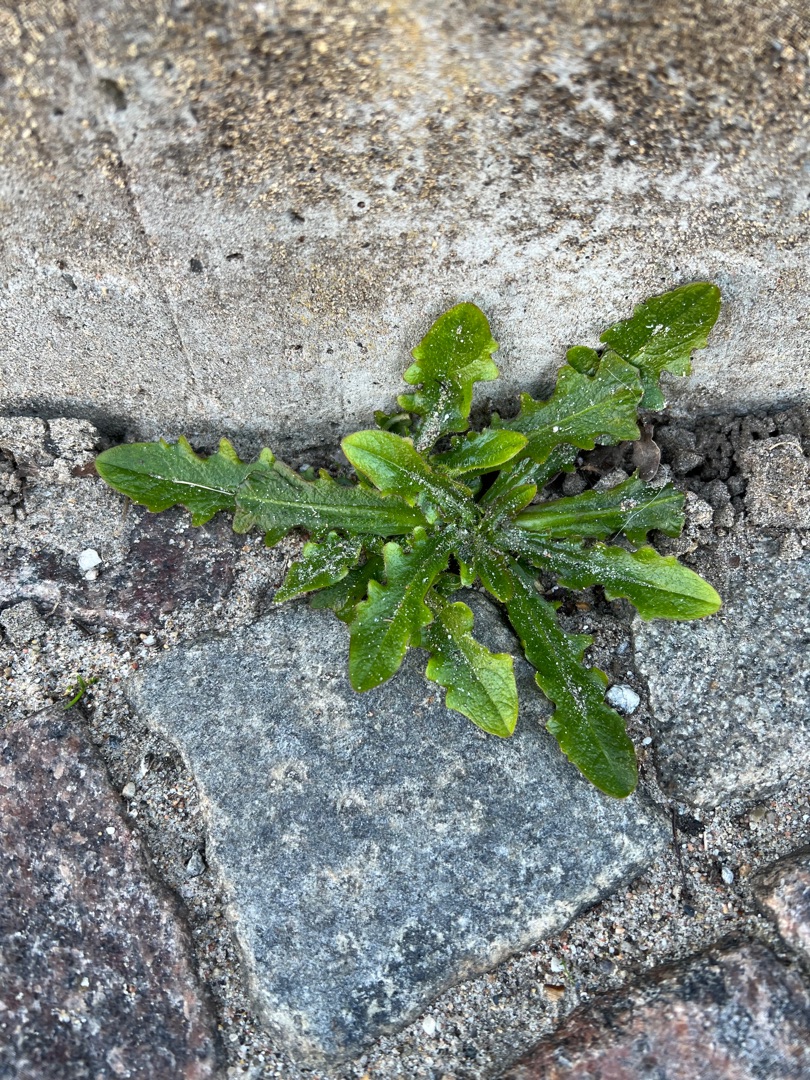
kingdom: Plantae
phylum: Tracheophyta
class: Magnoliopsida
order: Asterales
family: Asteraceae
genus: Hypochaeris
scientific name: Hypochaeris radicata
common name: Almindelig kongepen
